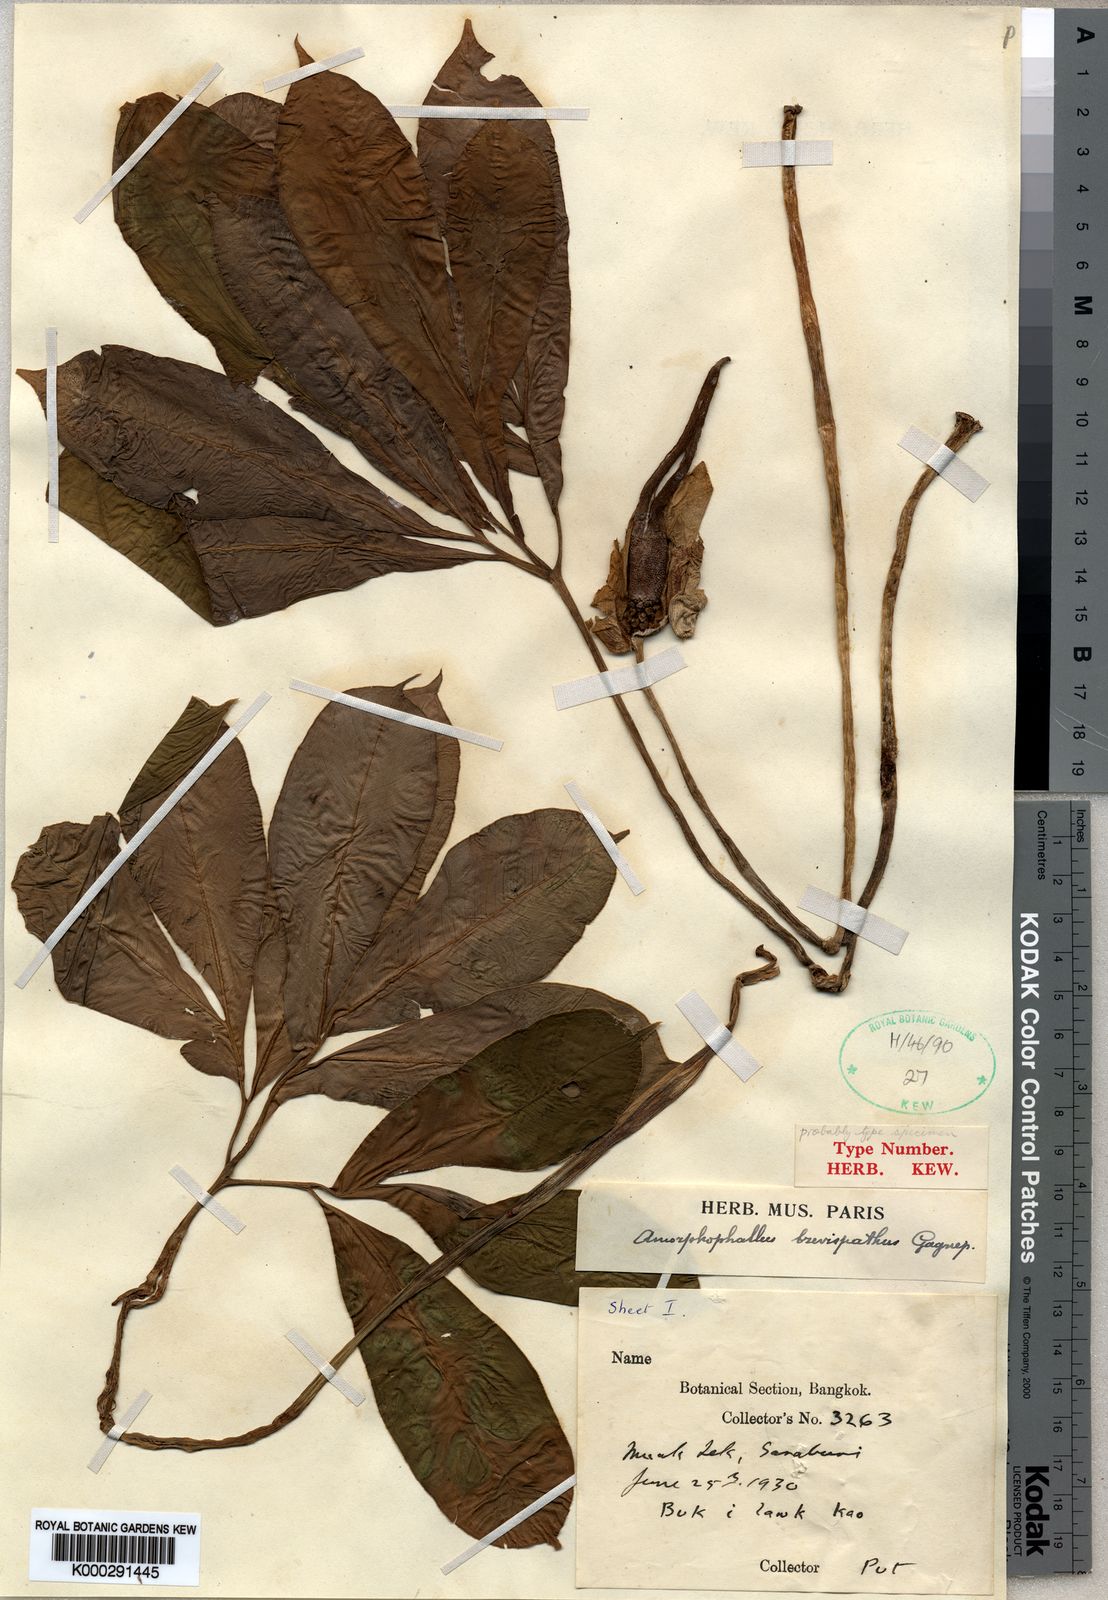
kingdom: Plantae
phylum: Tracheophyta
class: Liliopsida
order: Alismatales
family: Araceae
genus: Amorphophallus
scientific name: Amorphophallus brevispathus
